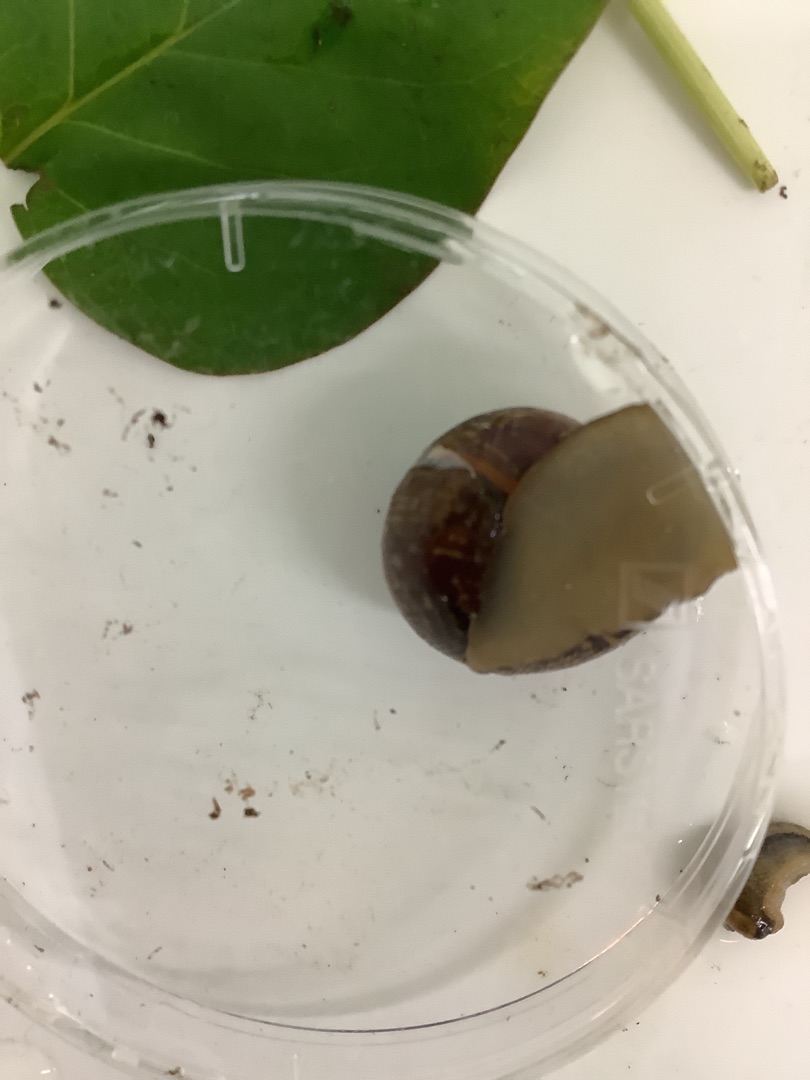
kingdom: Animalia
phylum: Mollusca
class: Gastropoda
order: Stylommatophora
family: Helicidae
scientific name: Helicidae
